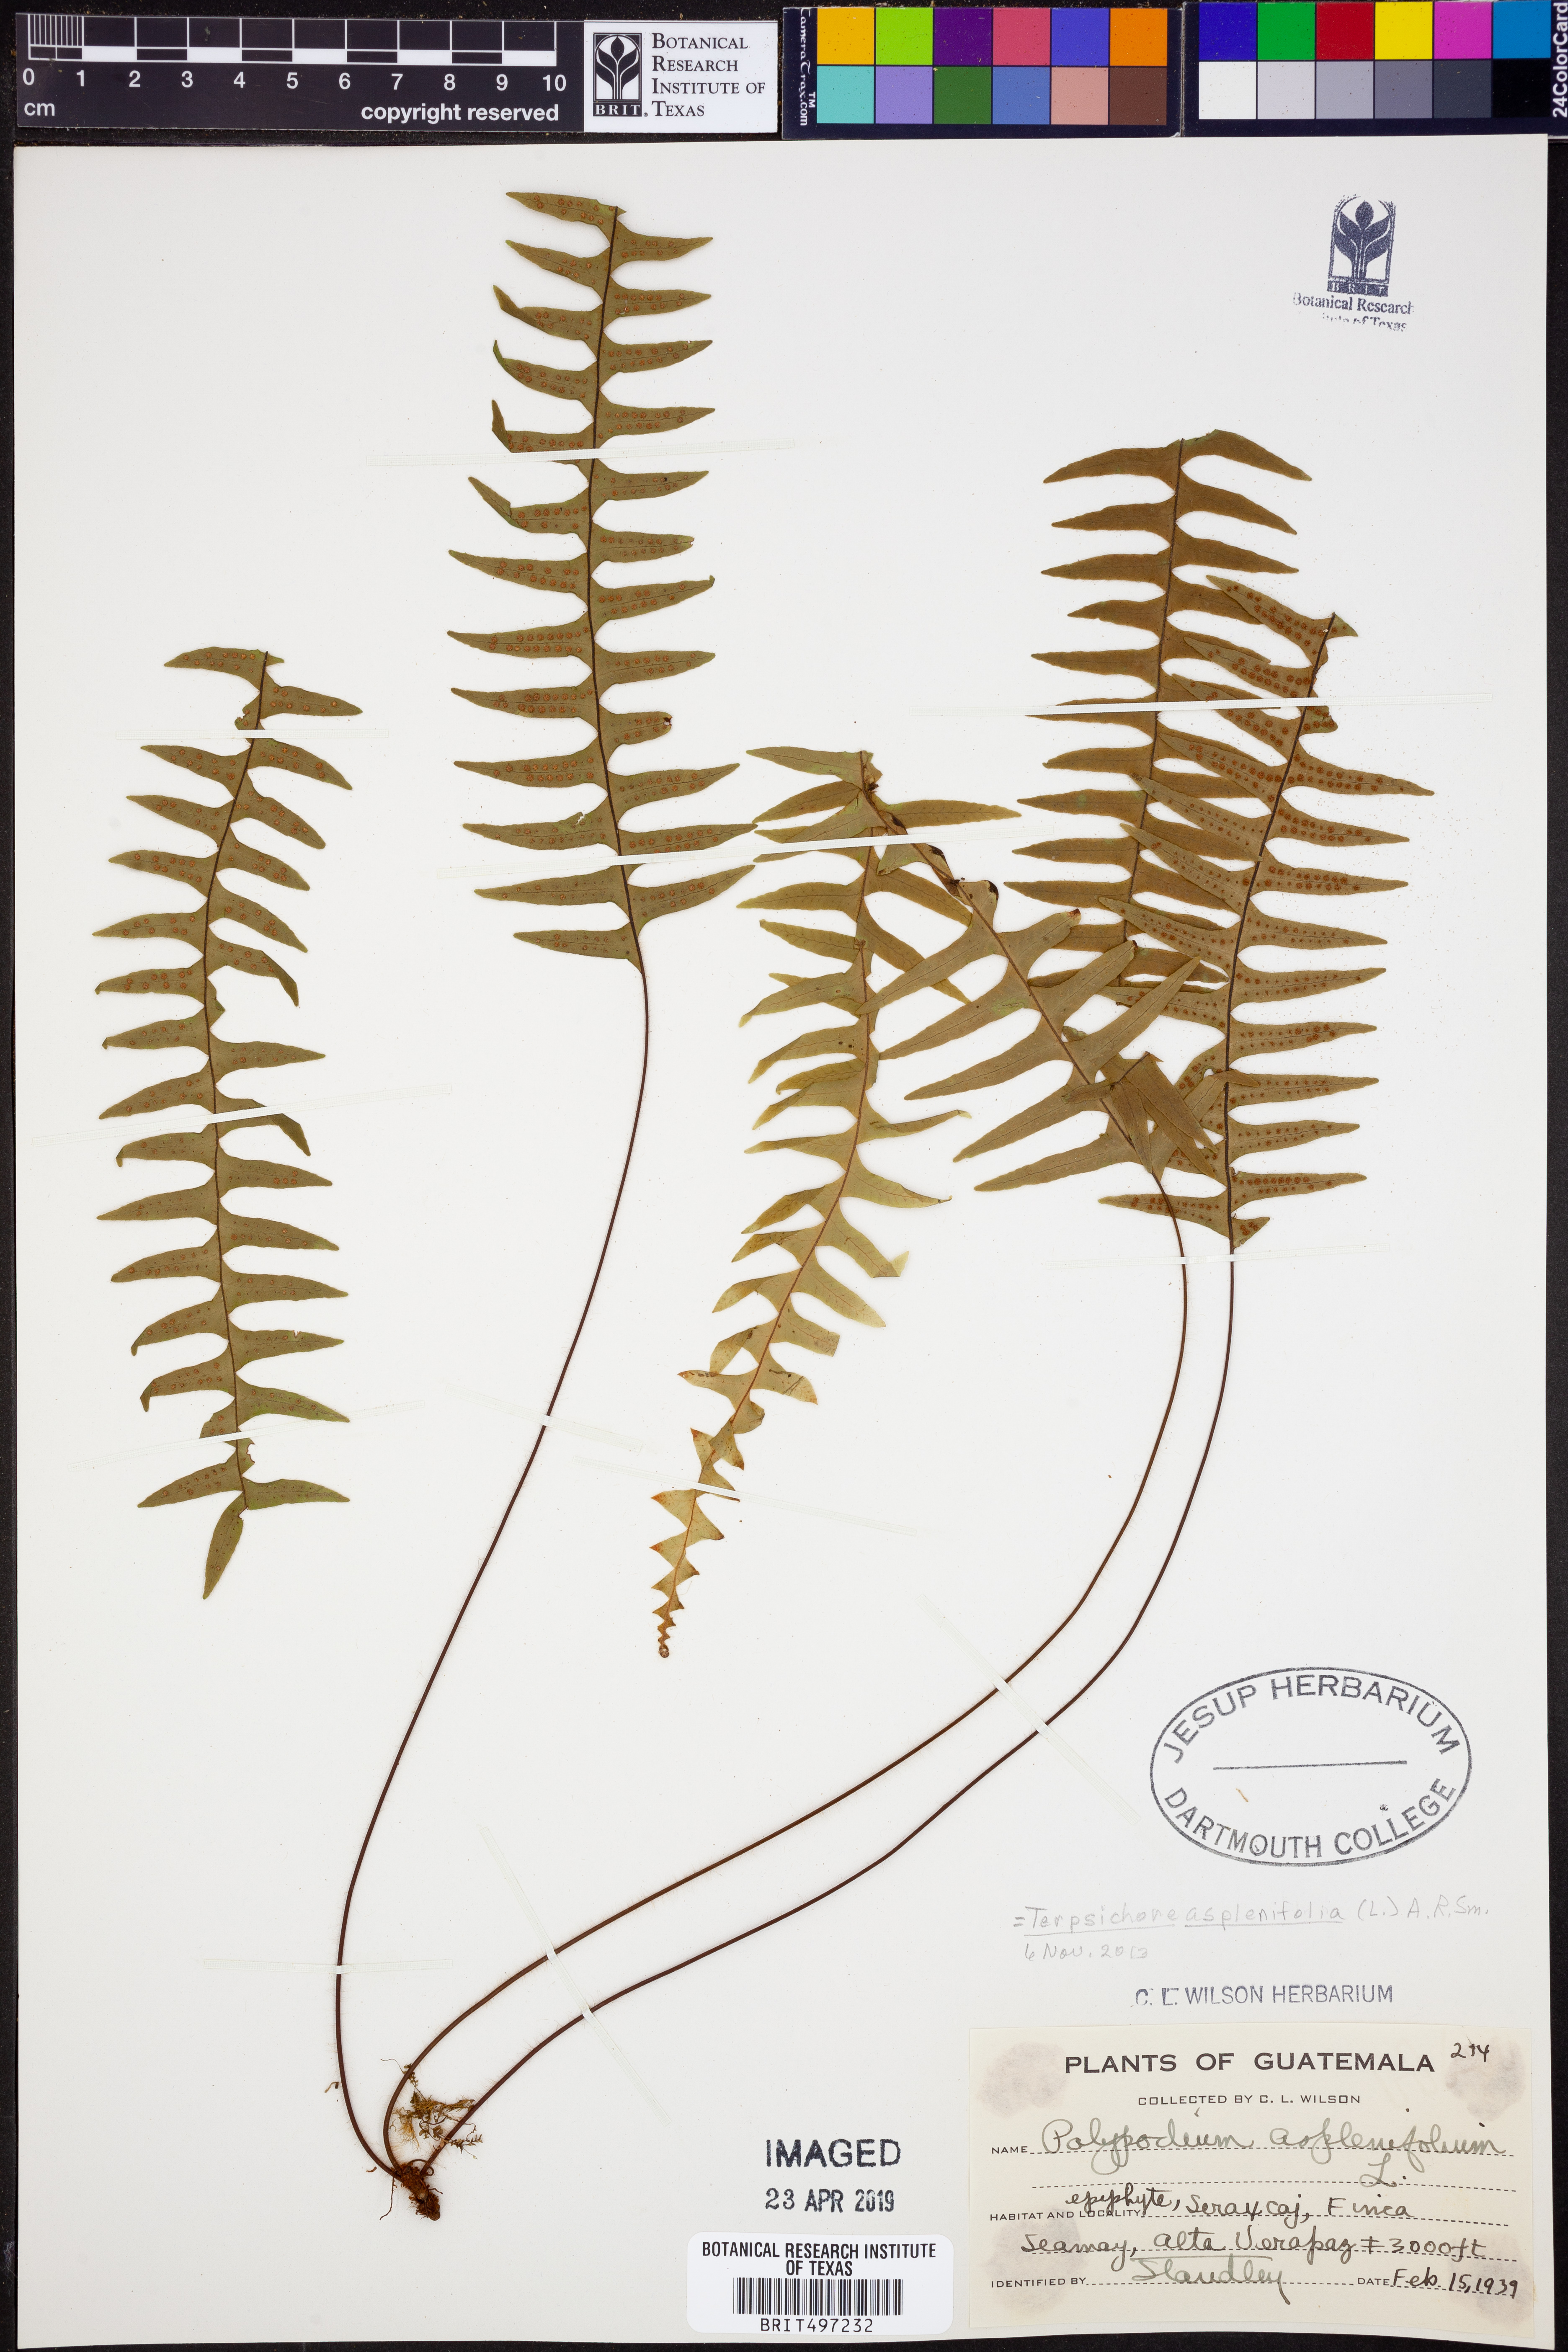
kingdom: Plantae
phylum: Tracheophyta
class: Polypodiopsida
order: Polypodiales
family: Polypodiaceae
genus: Terpsichore
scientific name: Terpsichore asplenifolia
